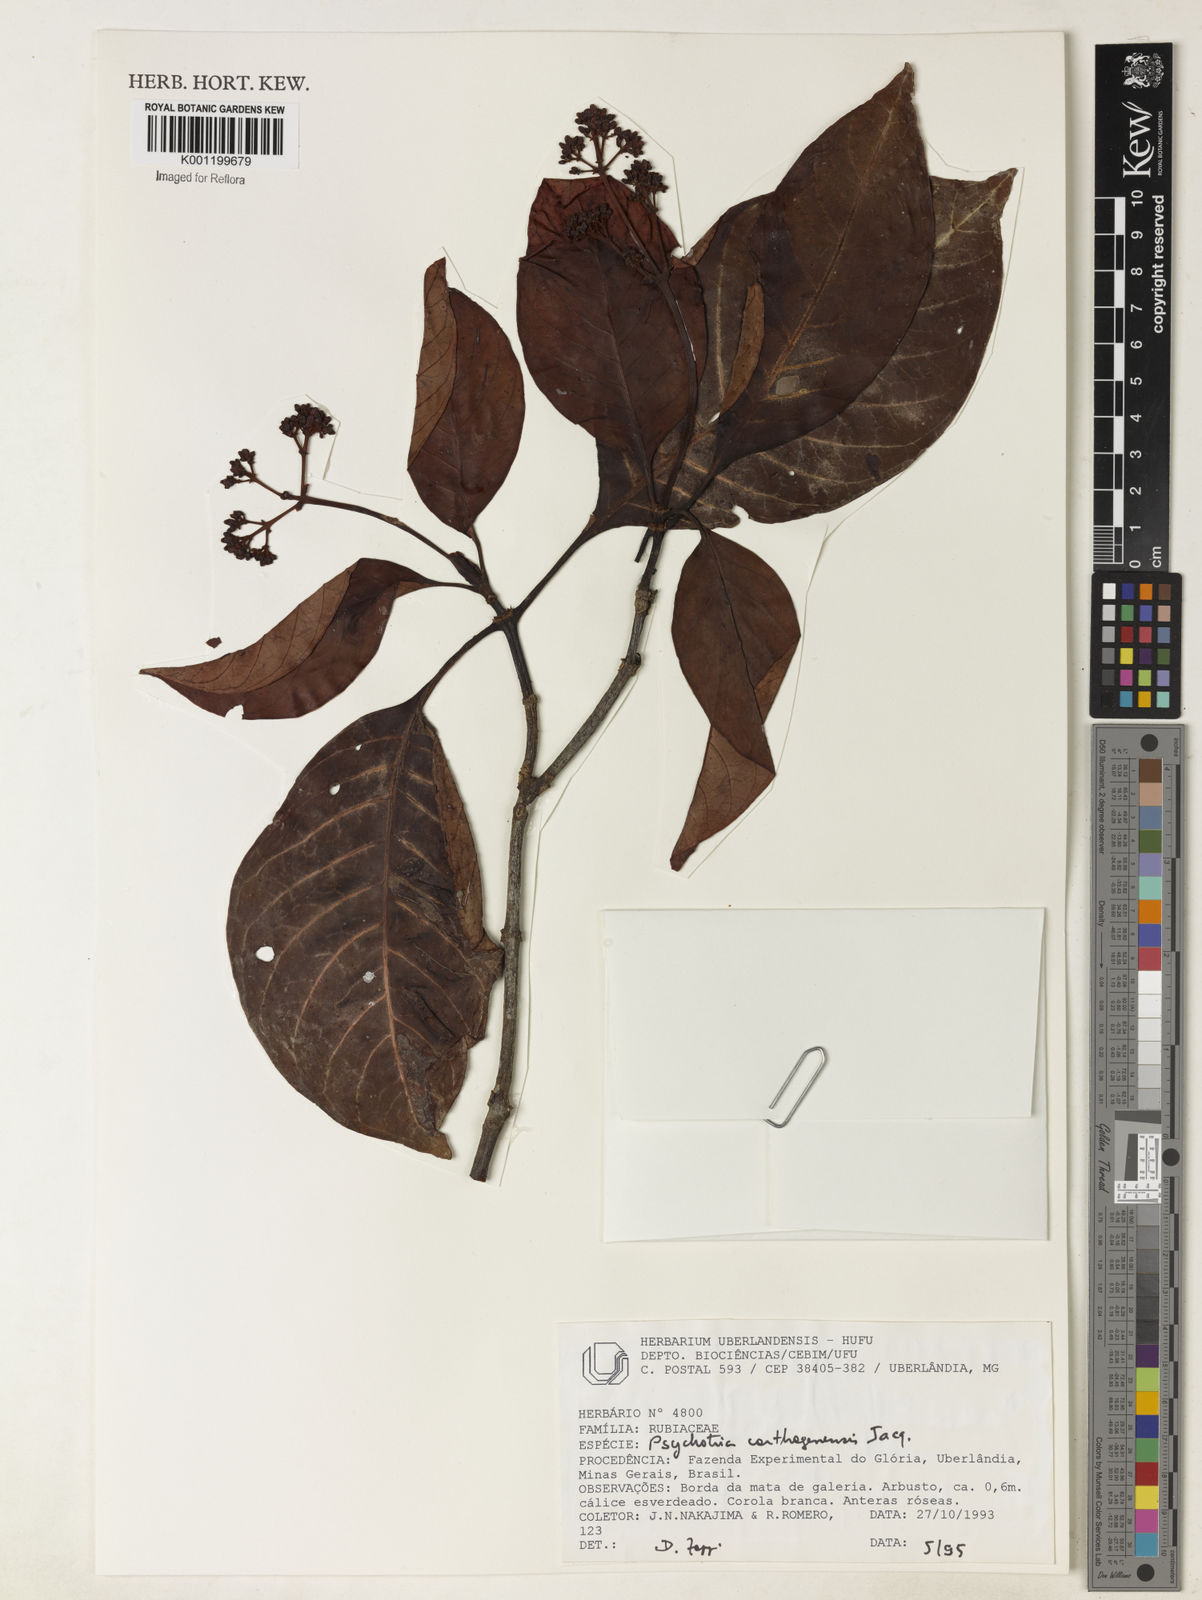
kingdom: Plantae
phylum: Tracheophyta
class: Magnoliopsida
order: Gentianales
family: Rubiaceae
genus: Psychotria
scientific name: Psychotria carthagenensis
